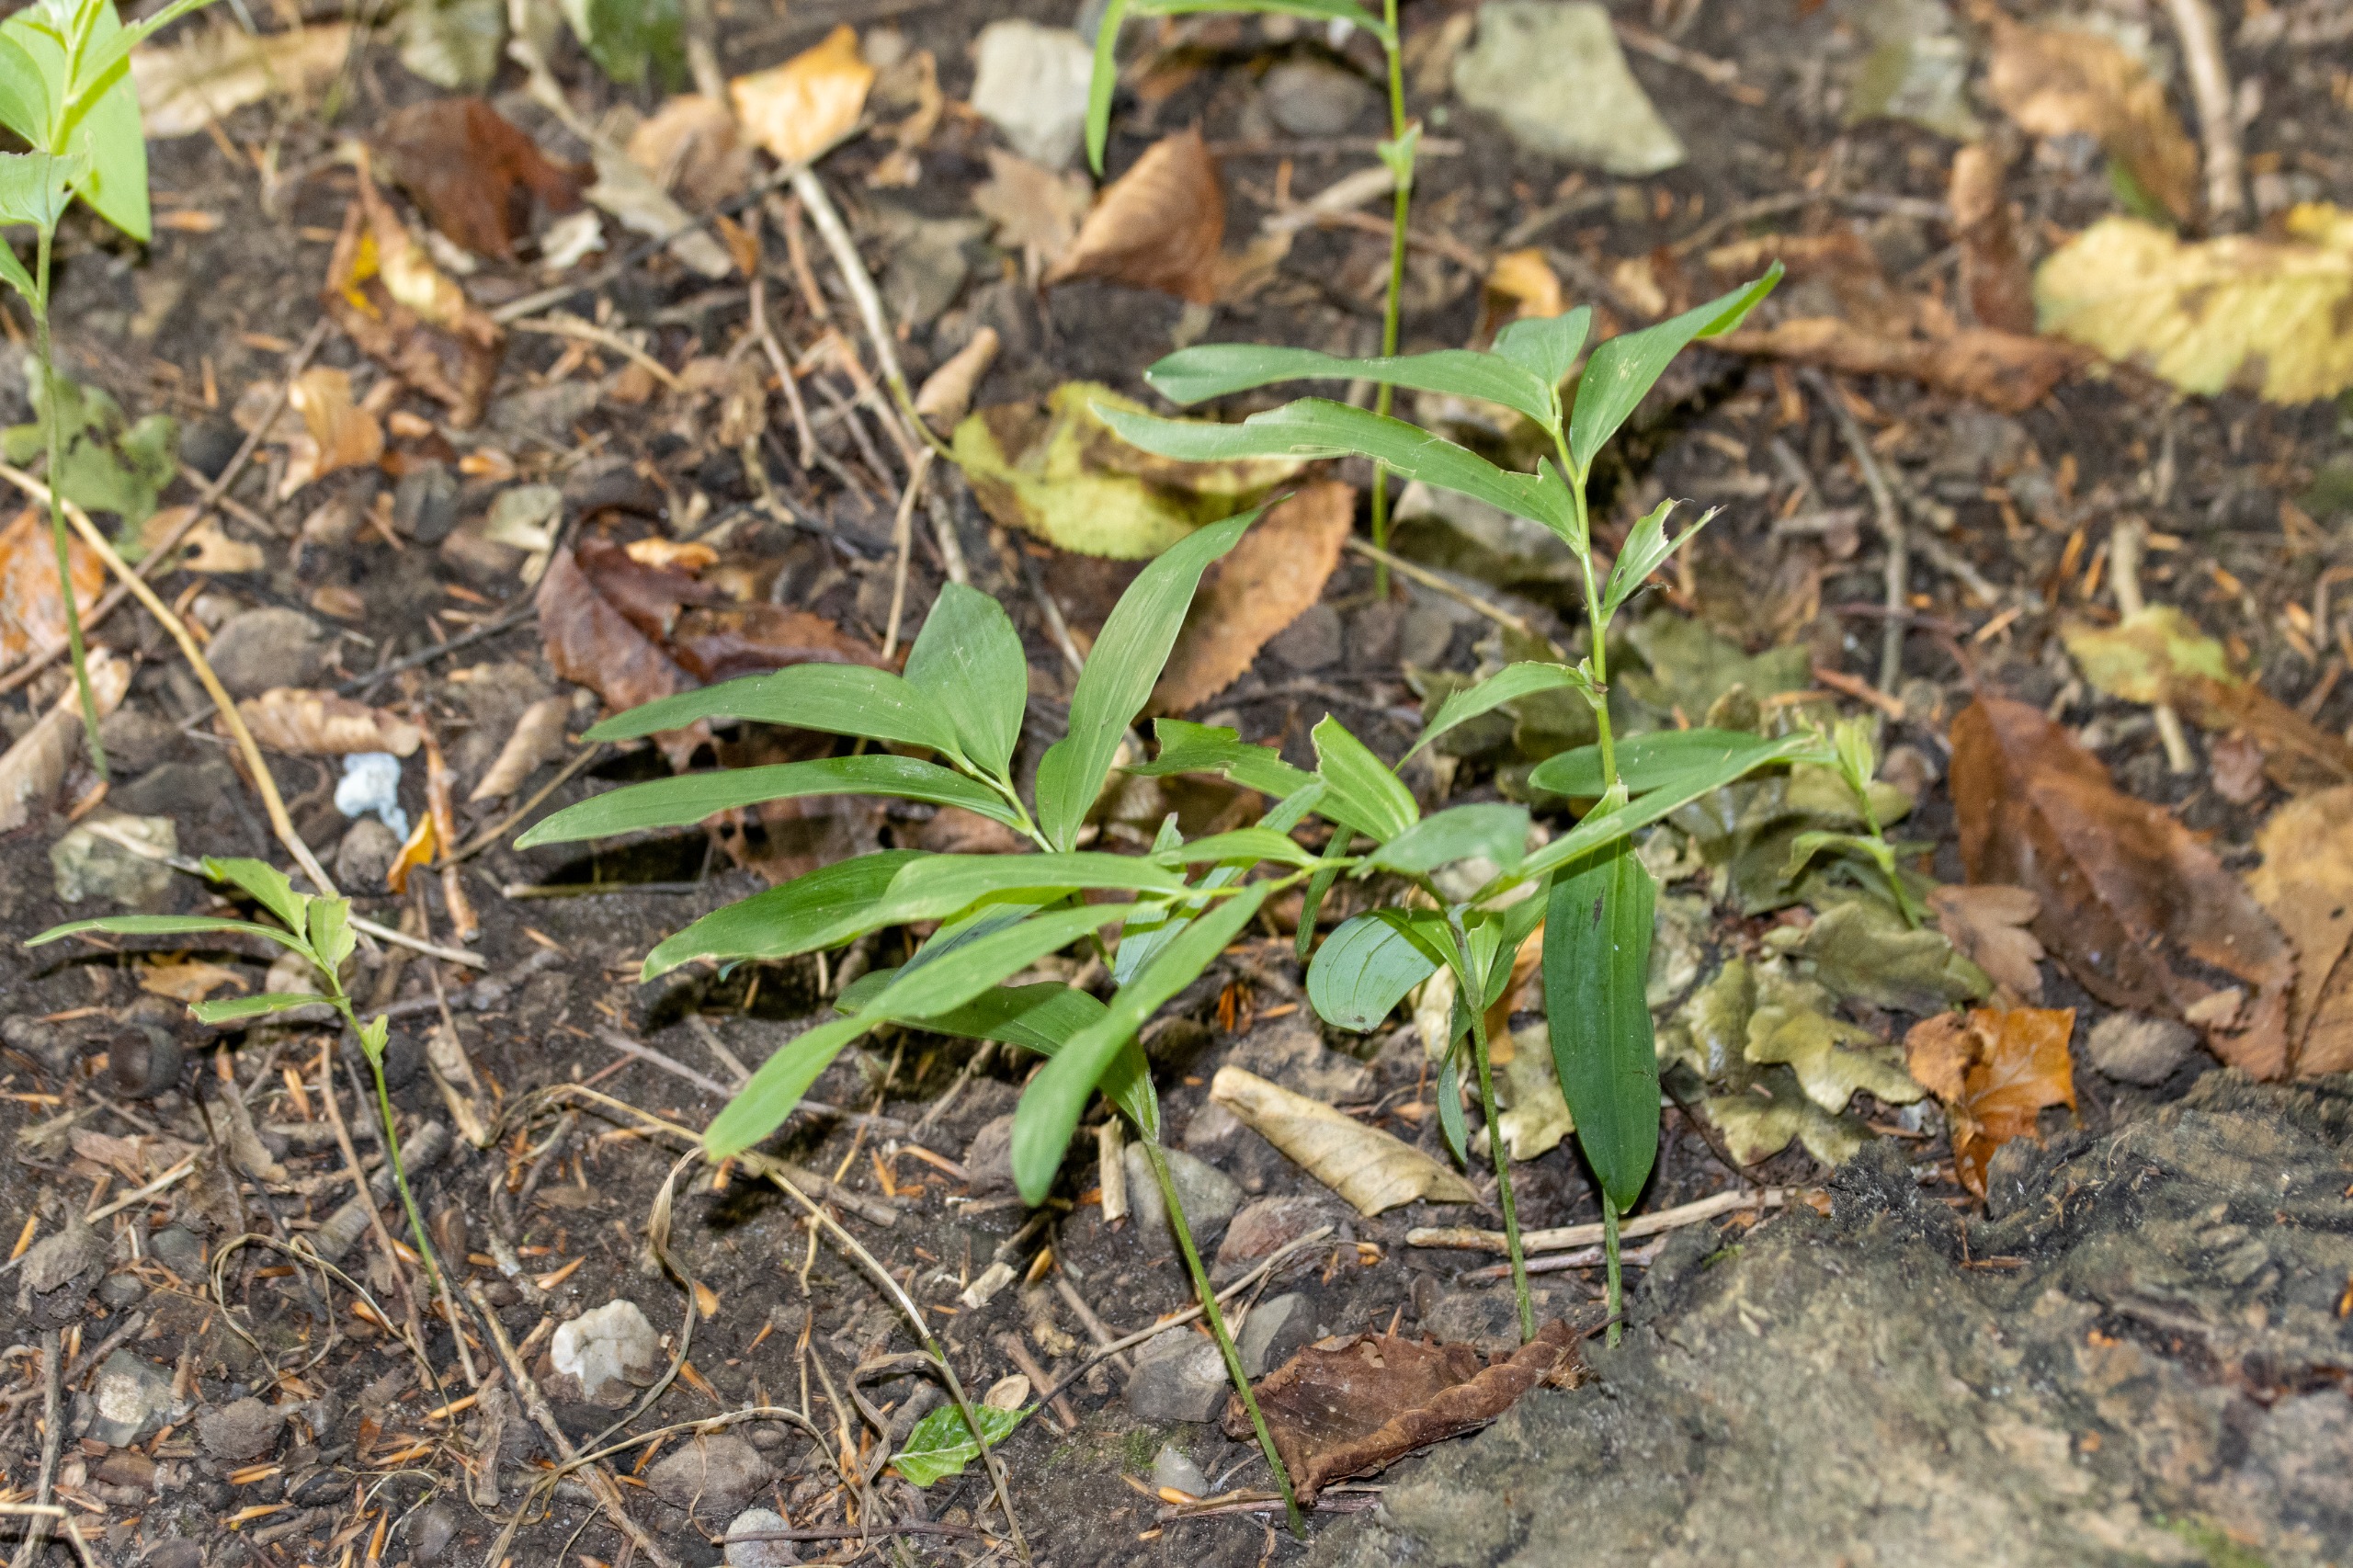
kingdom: Plantae
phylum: Tracheophyta
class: Liliopsida
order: Asparagales
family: Asparagaceae
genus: Polygonatum
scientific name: Polygonatum multiflorum
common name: Stor konval
